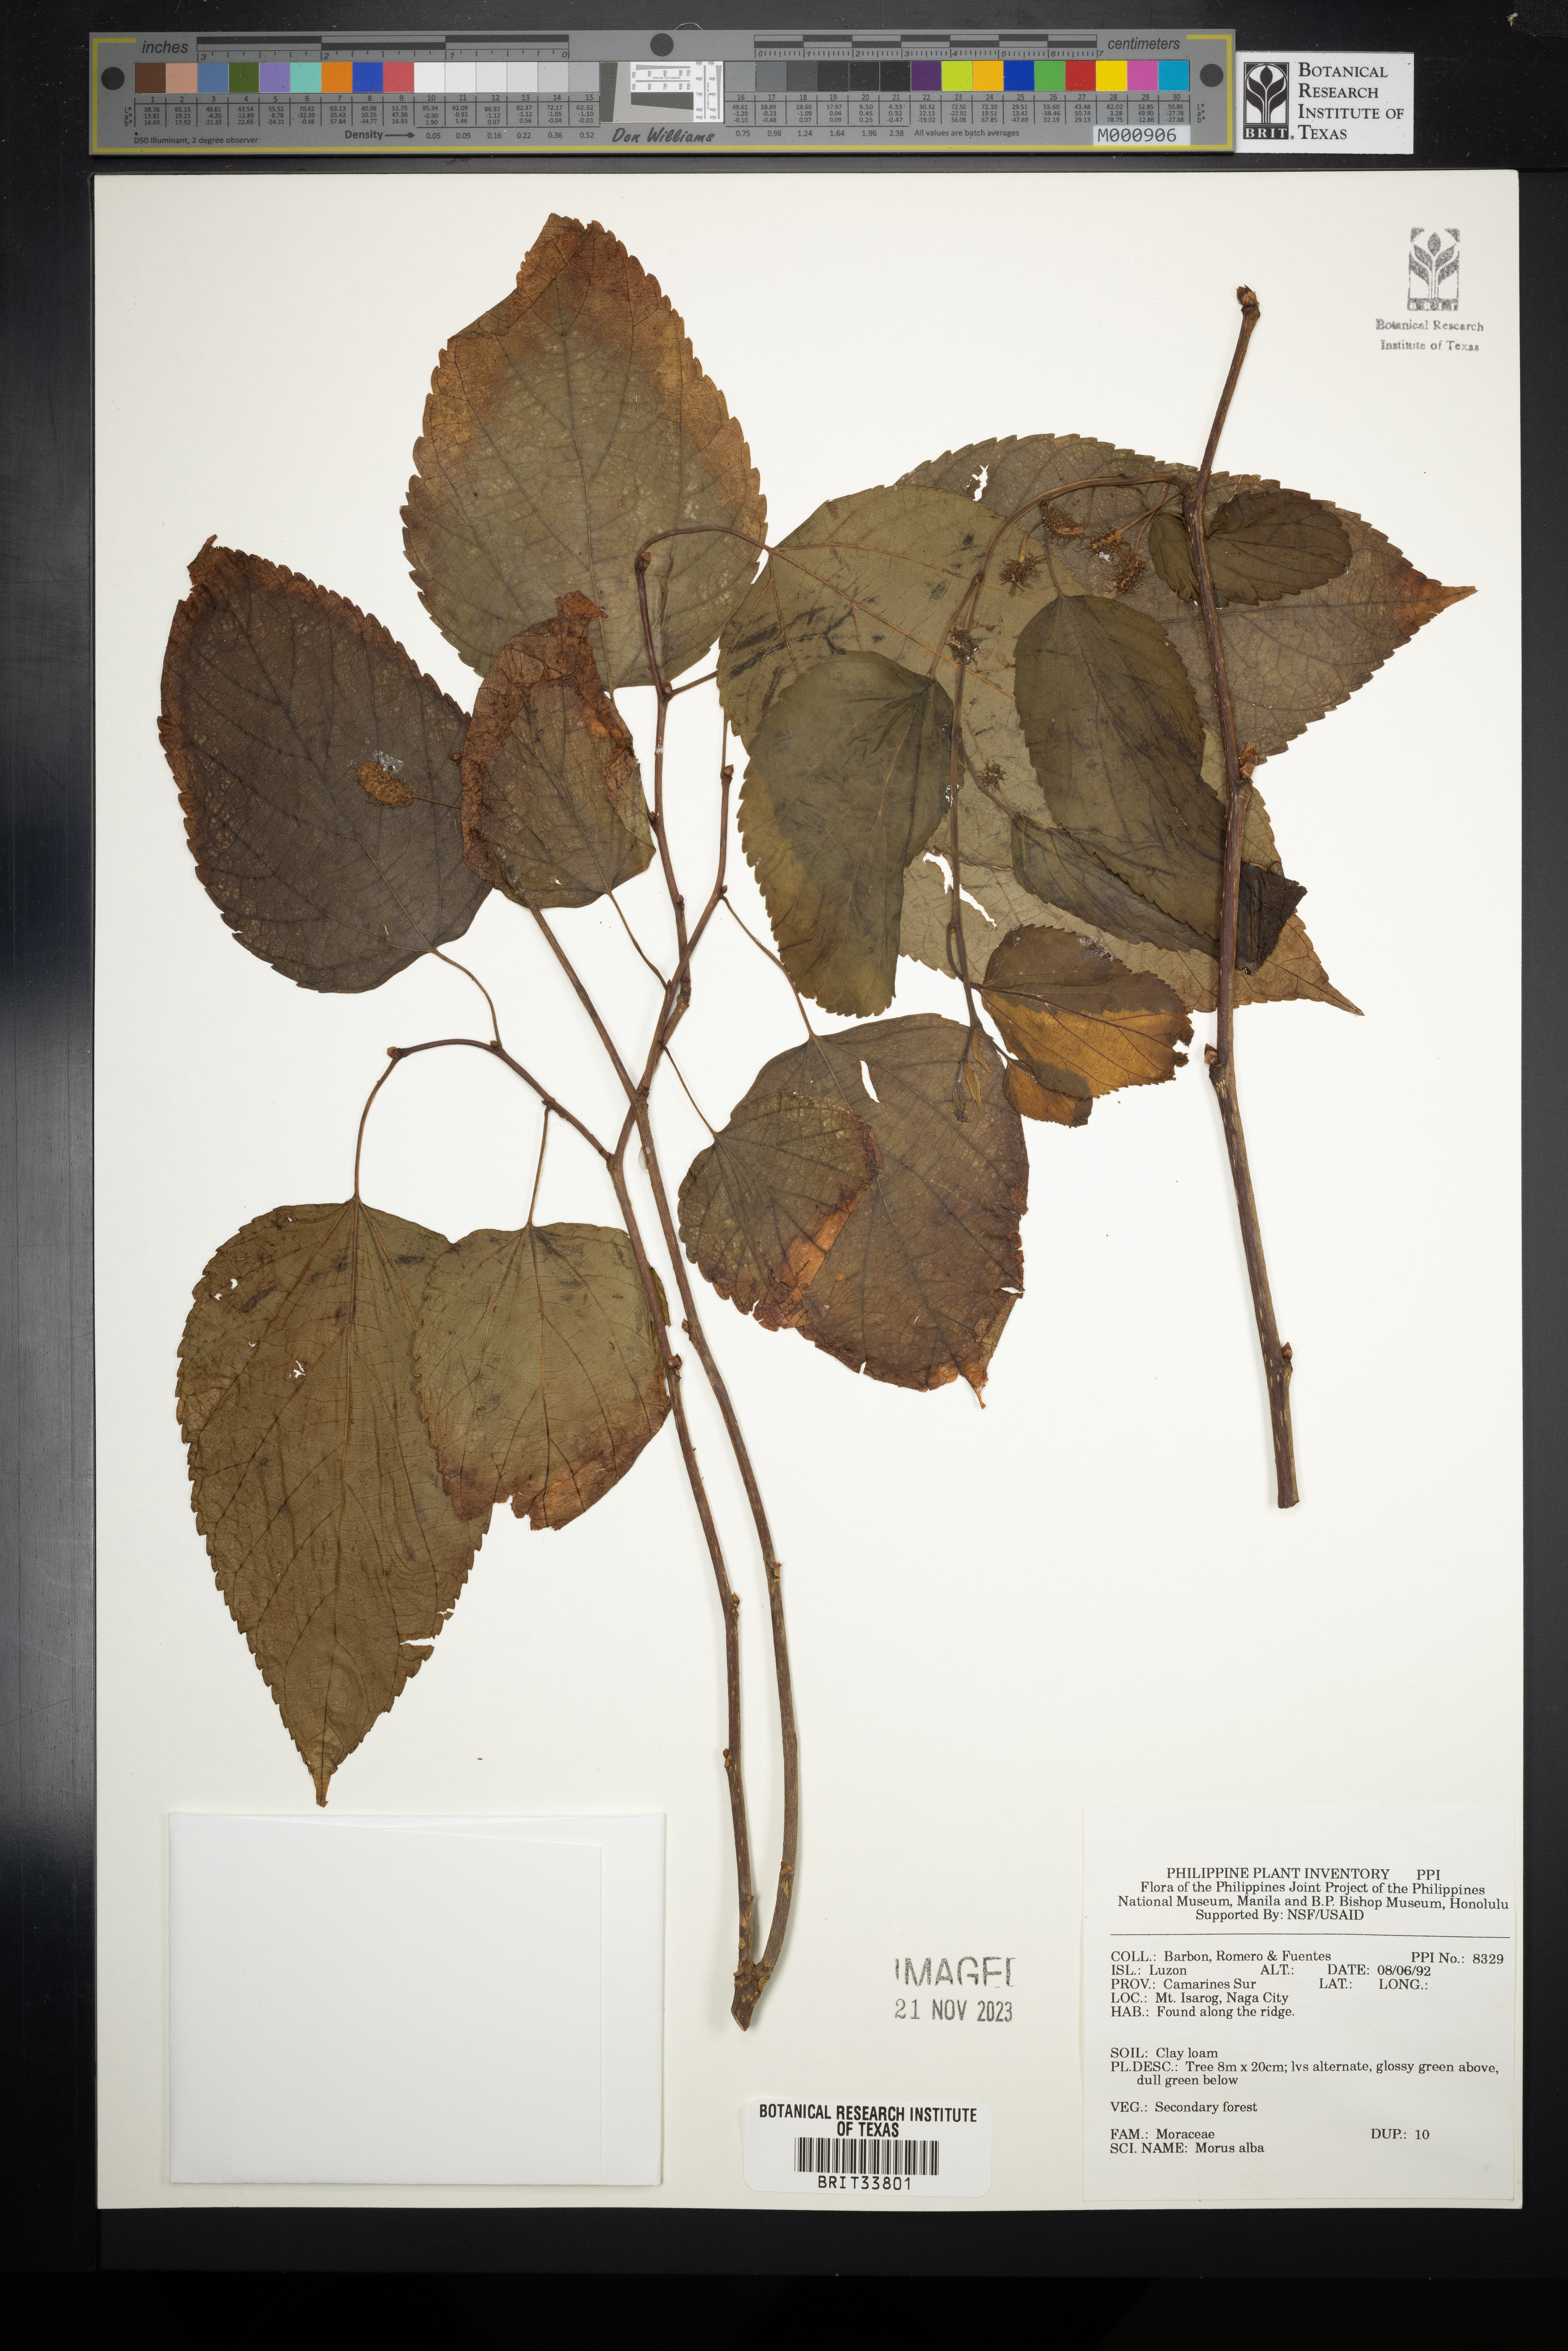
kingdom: Plantae
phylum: Tracheophyta
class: Magnoliopsida
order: Rosales
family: Moraceae
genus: Morus
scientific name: Morus alba
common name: White mulberry
